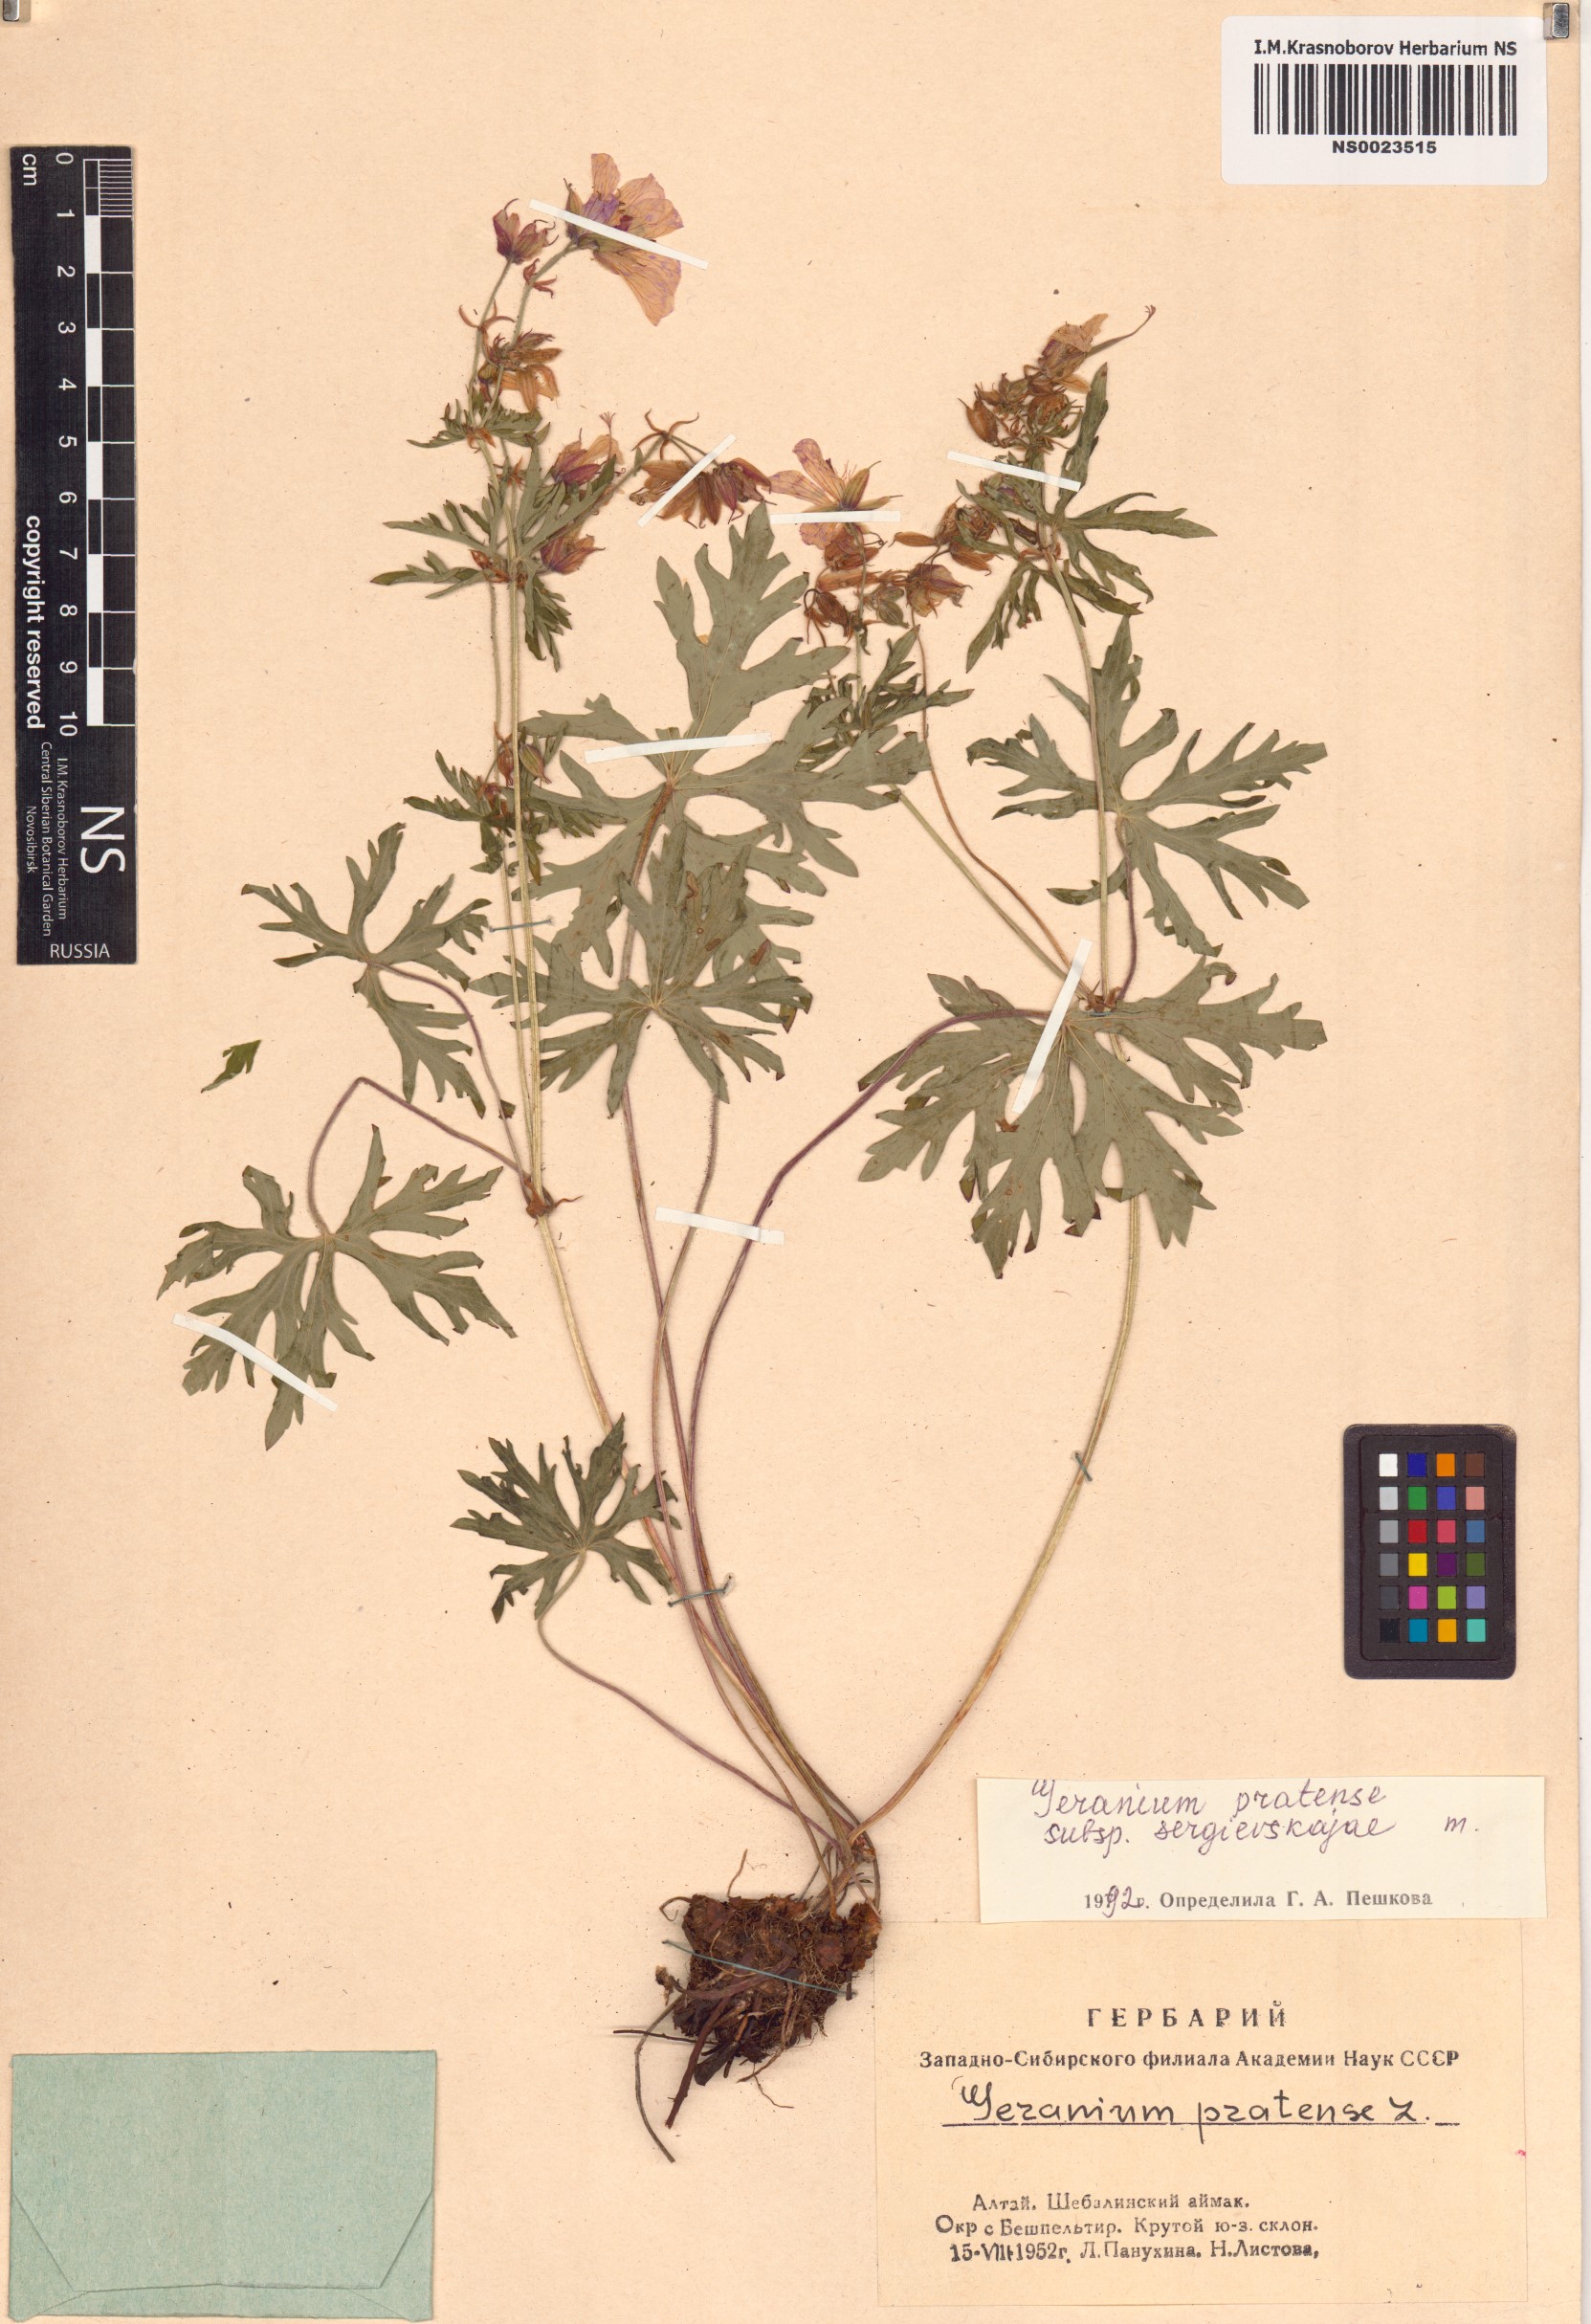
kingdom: Plantae
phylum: Tracheophyta
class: Magnoliopsida
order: Geraniales
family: Geraniaceae
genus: Geranium
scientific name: Geranium pratense
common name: Meadow crane's-bill
